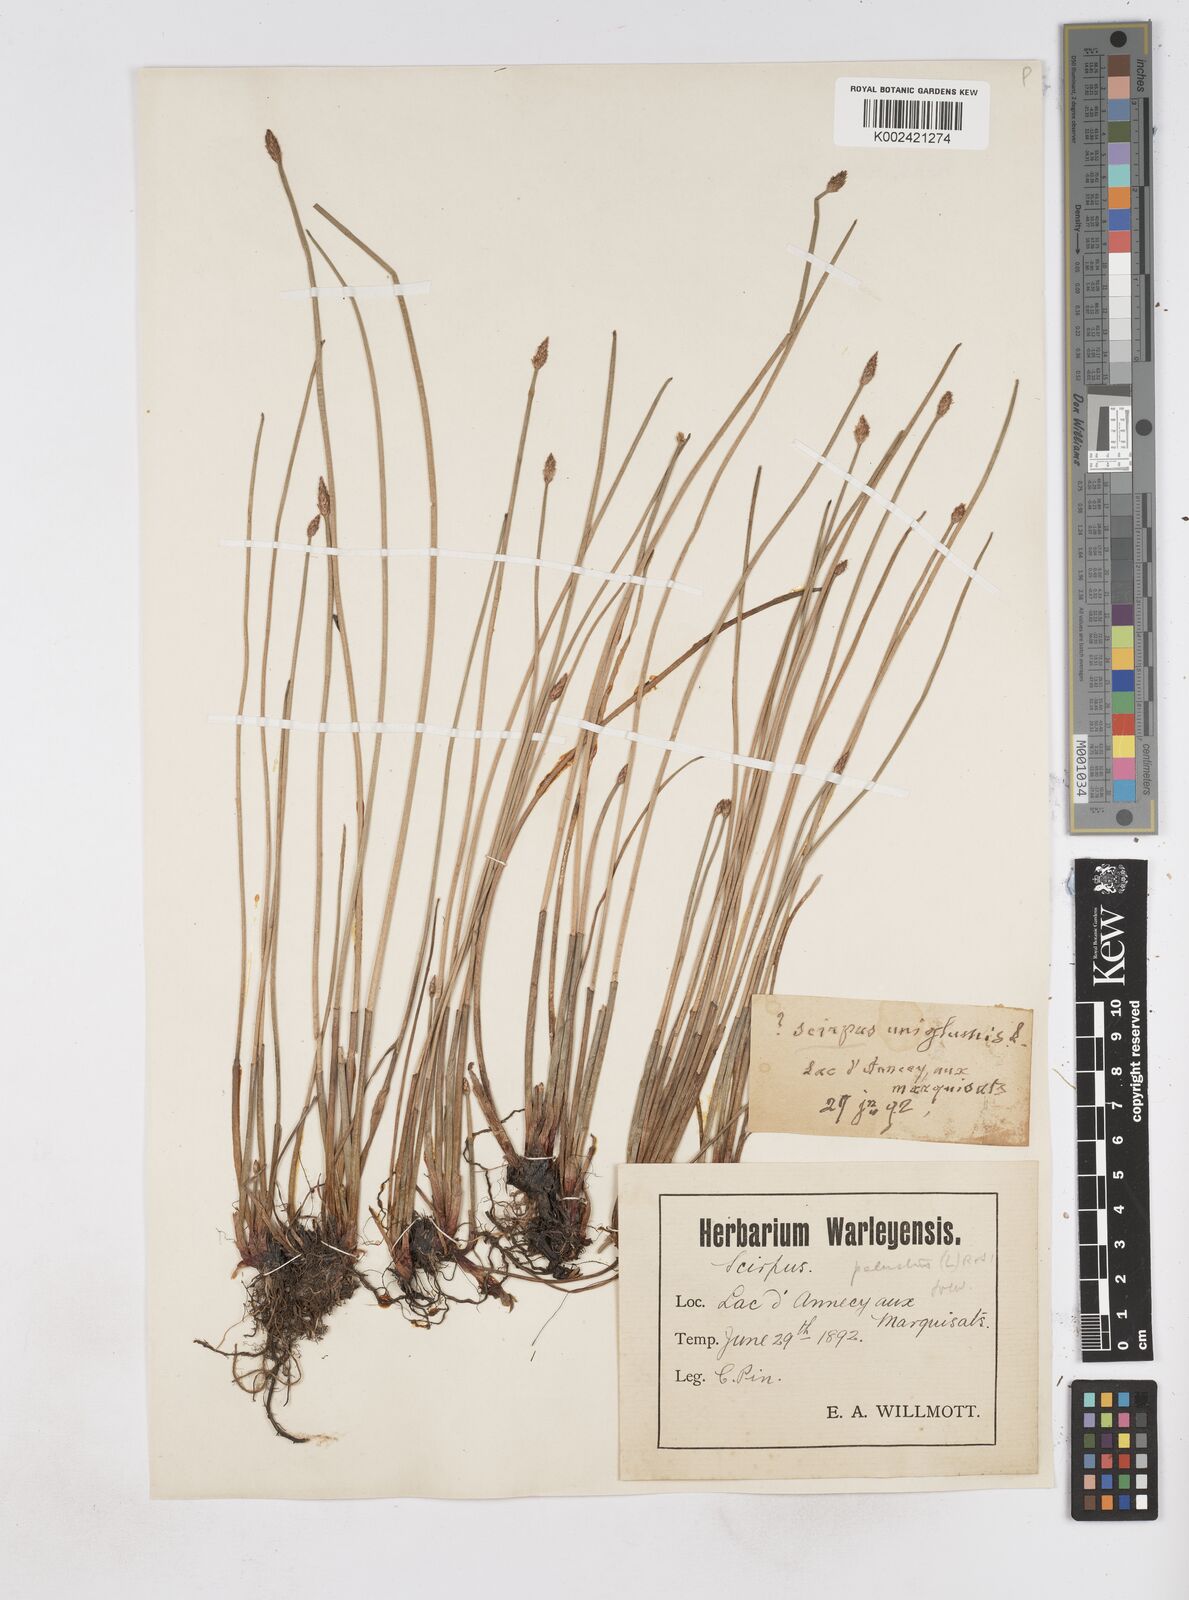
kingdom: Plantae
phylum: Tracheophyta
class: Liliopsida
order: Poales
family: Cyperaceae
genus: Eleocharis
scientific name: Eleocharis palustris
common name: Common spike-rush
